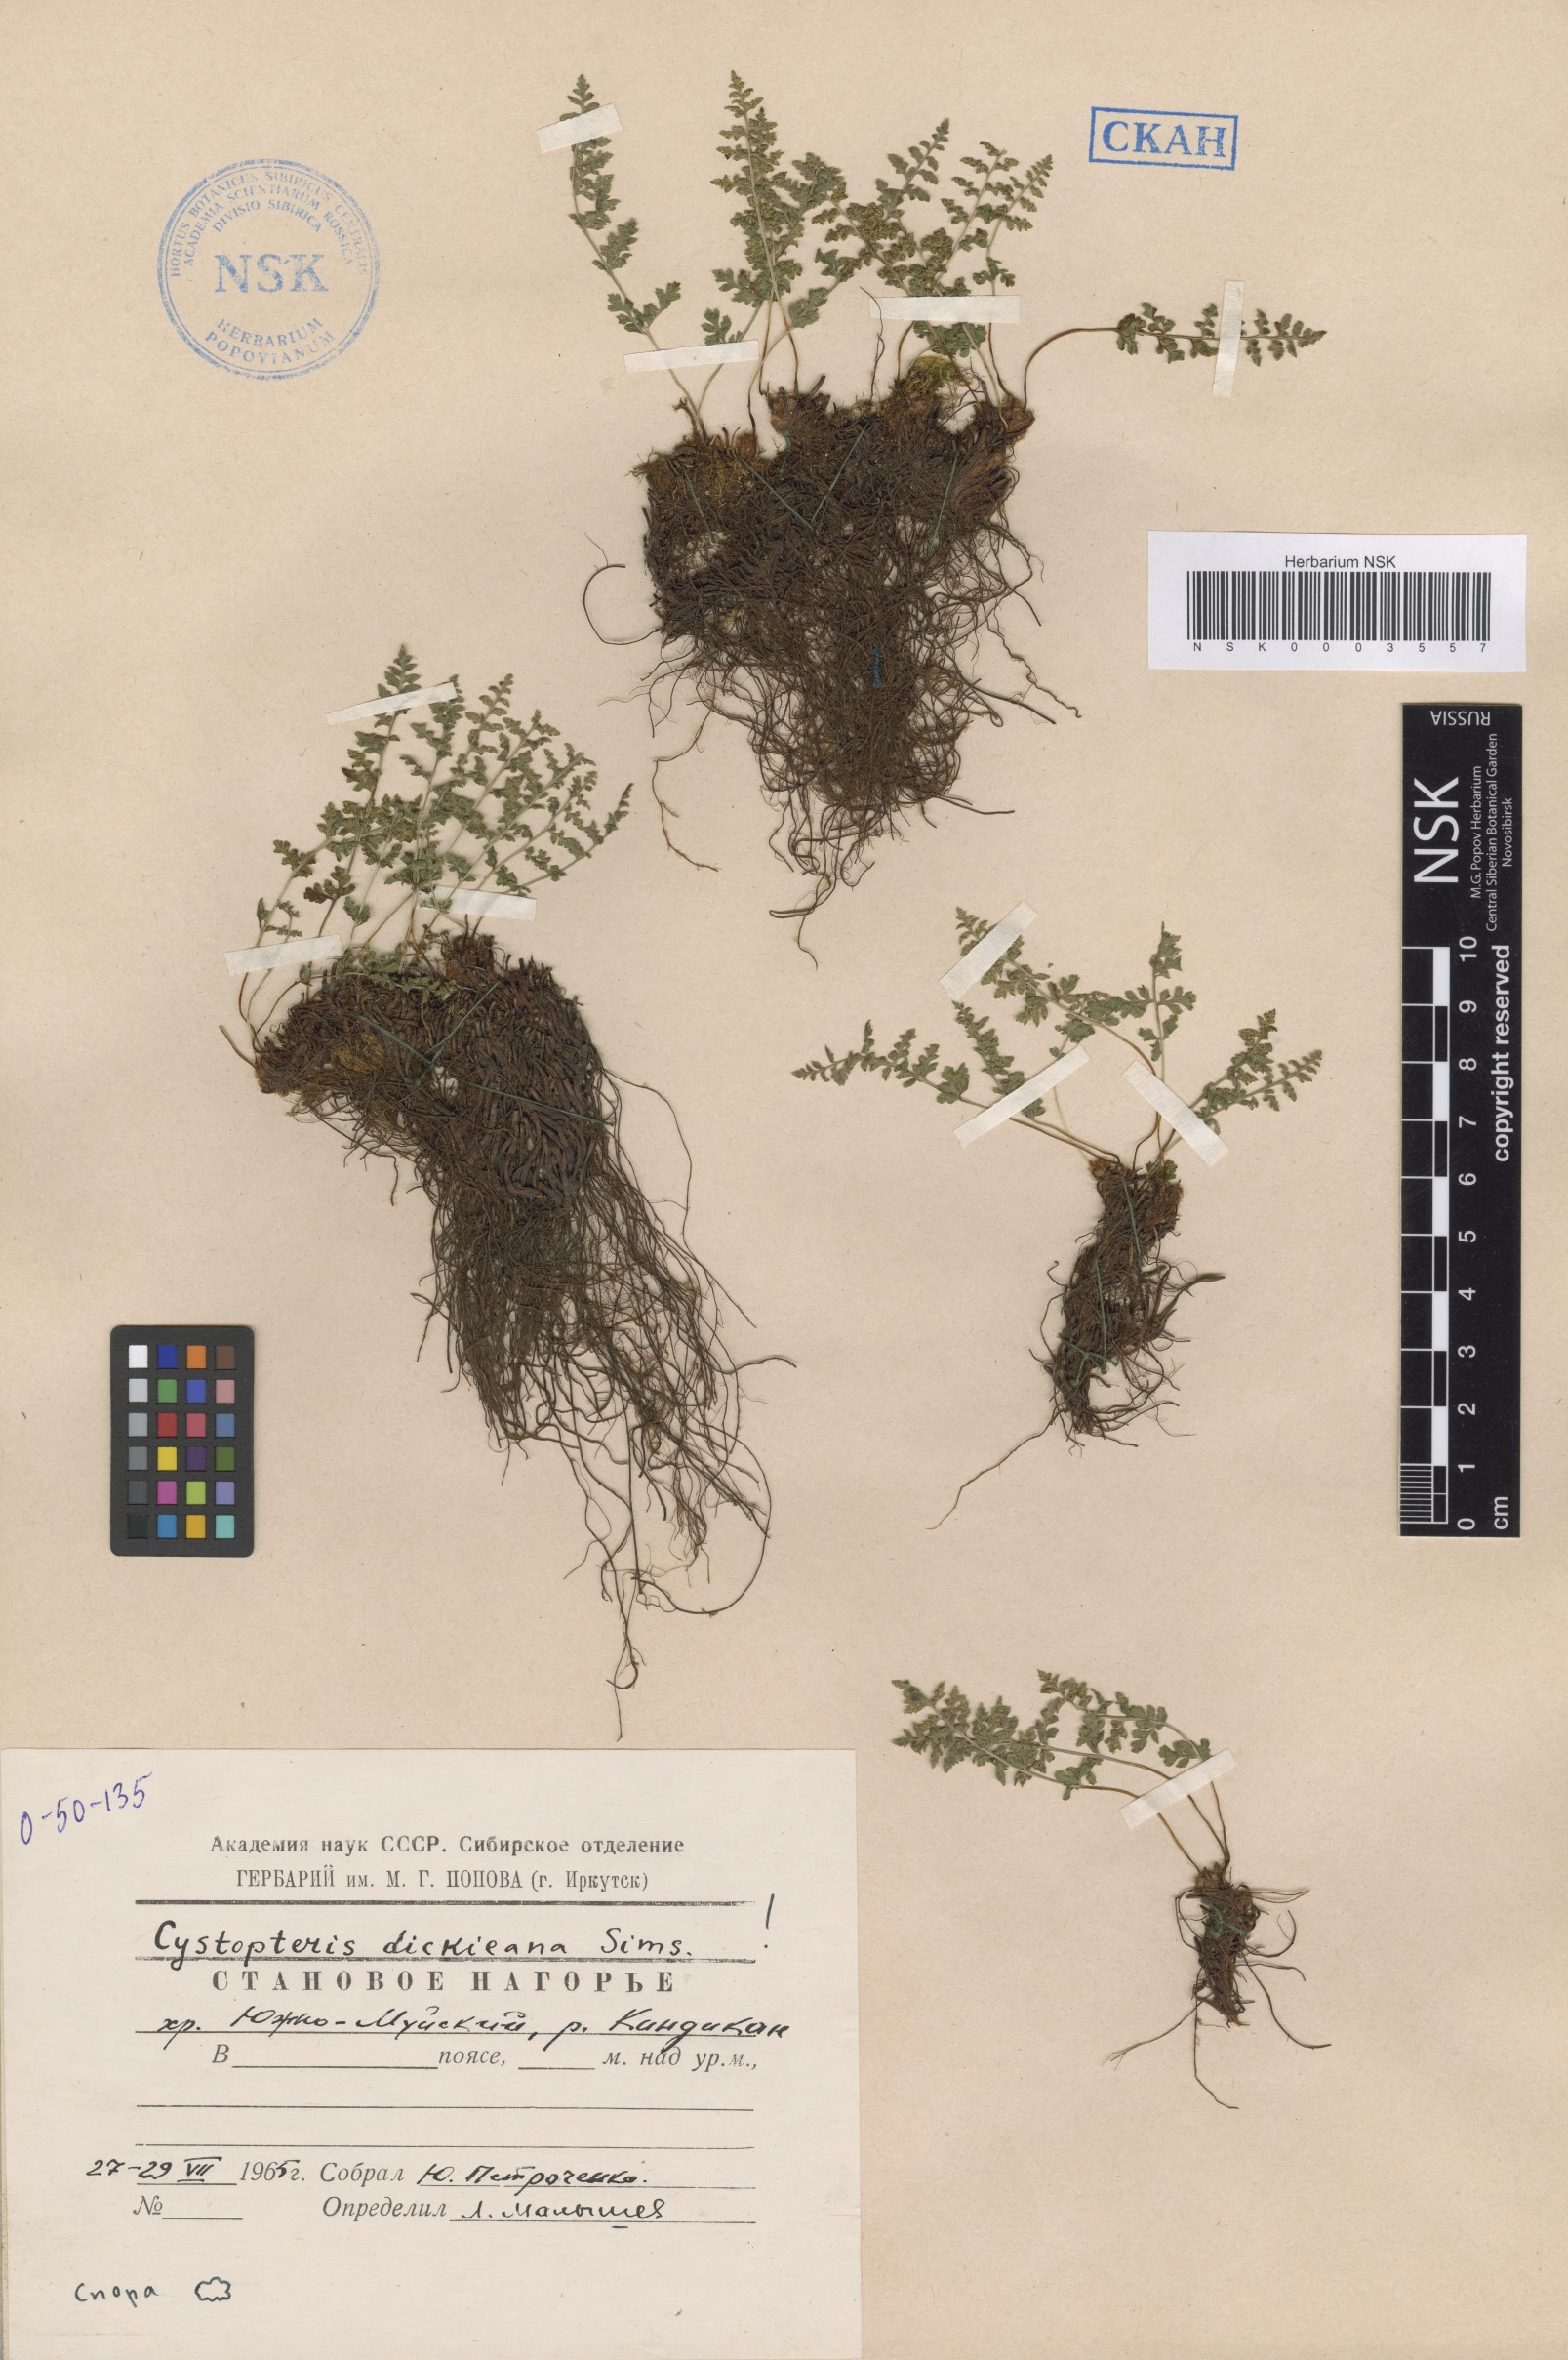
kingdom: Plantae
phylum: Tracheophyta
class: Polypodiopsida
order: Polypodiales
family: Cystopteridaceae
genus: Cystopteris
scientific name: Cystopteris dickieana
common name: Dickie's bladder-fern
